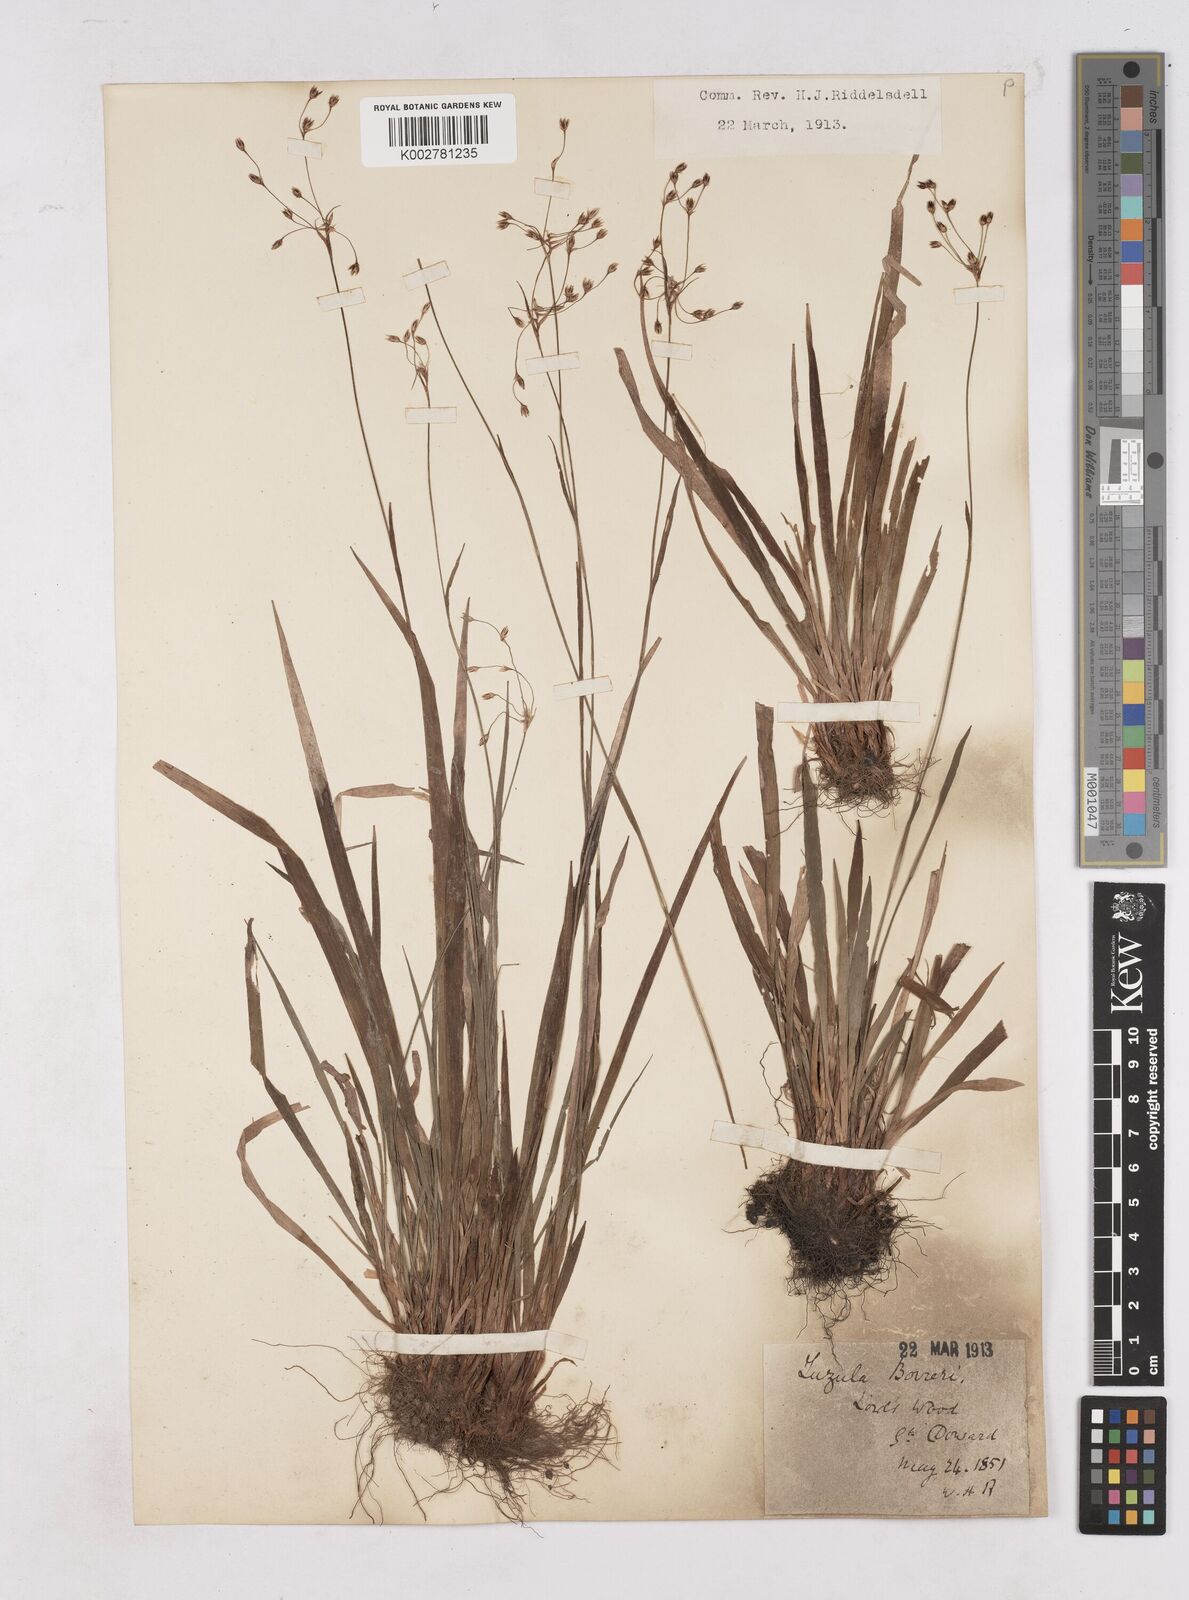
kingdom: Plantae
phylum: Tracheophyta
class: Liliopsida
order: Poales
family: Juncaceae
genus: Luzula
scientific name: Luzula forsteri
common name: Southern wood-rush
